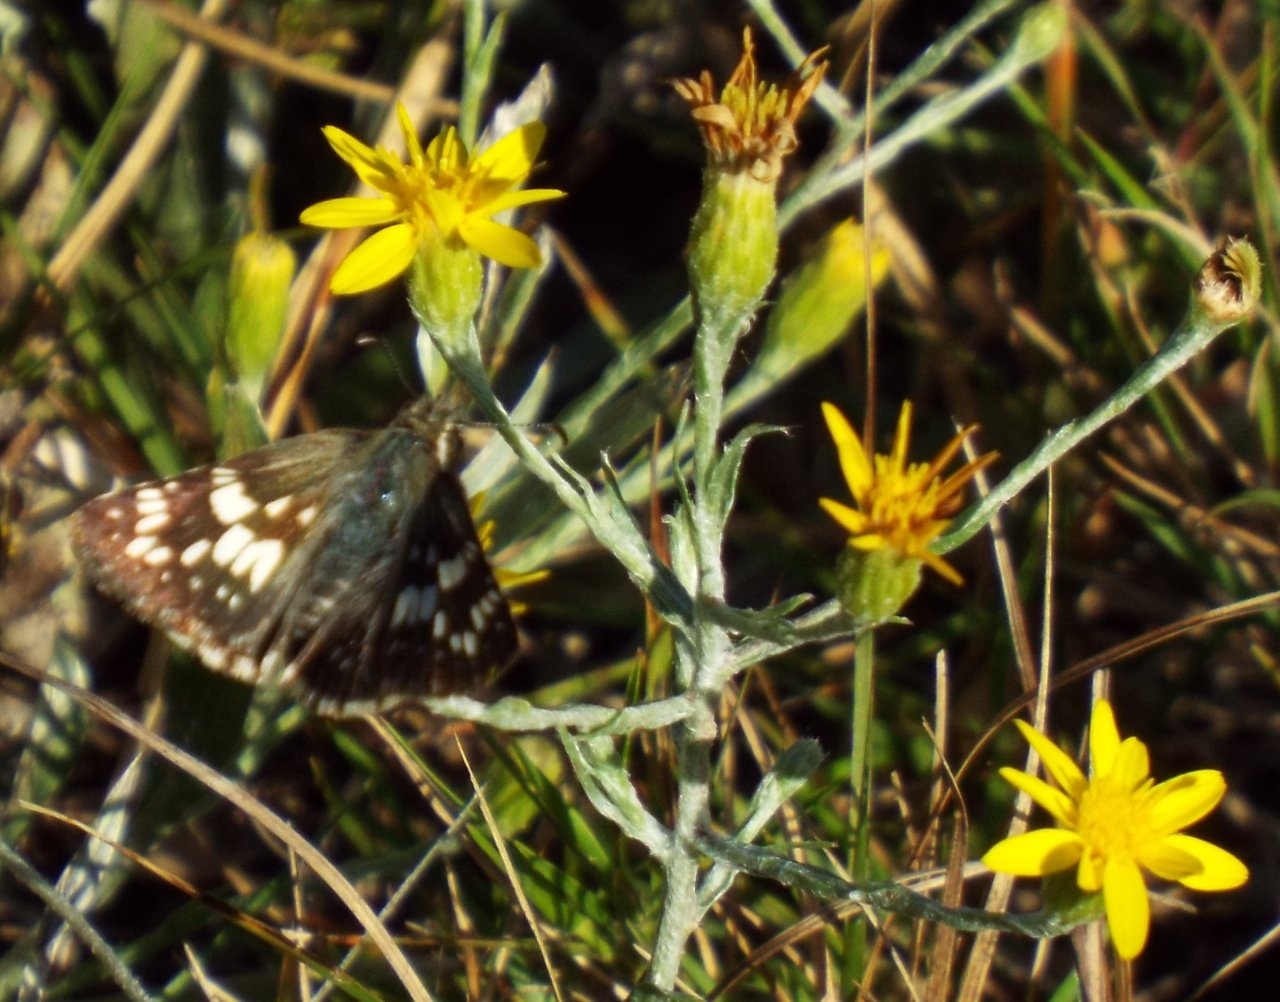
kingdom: Animalia
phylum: Arthropoda
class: Insecta
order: Lepidoptera
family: Hesperiidae
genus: Pyrgus
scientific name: Pyrgus communis
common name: White Checkered-Skipper
